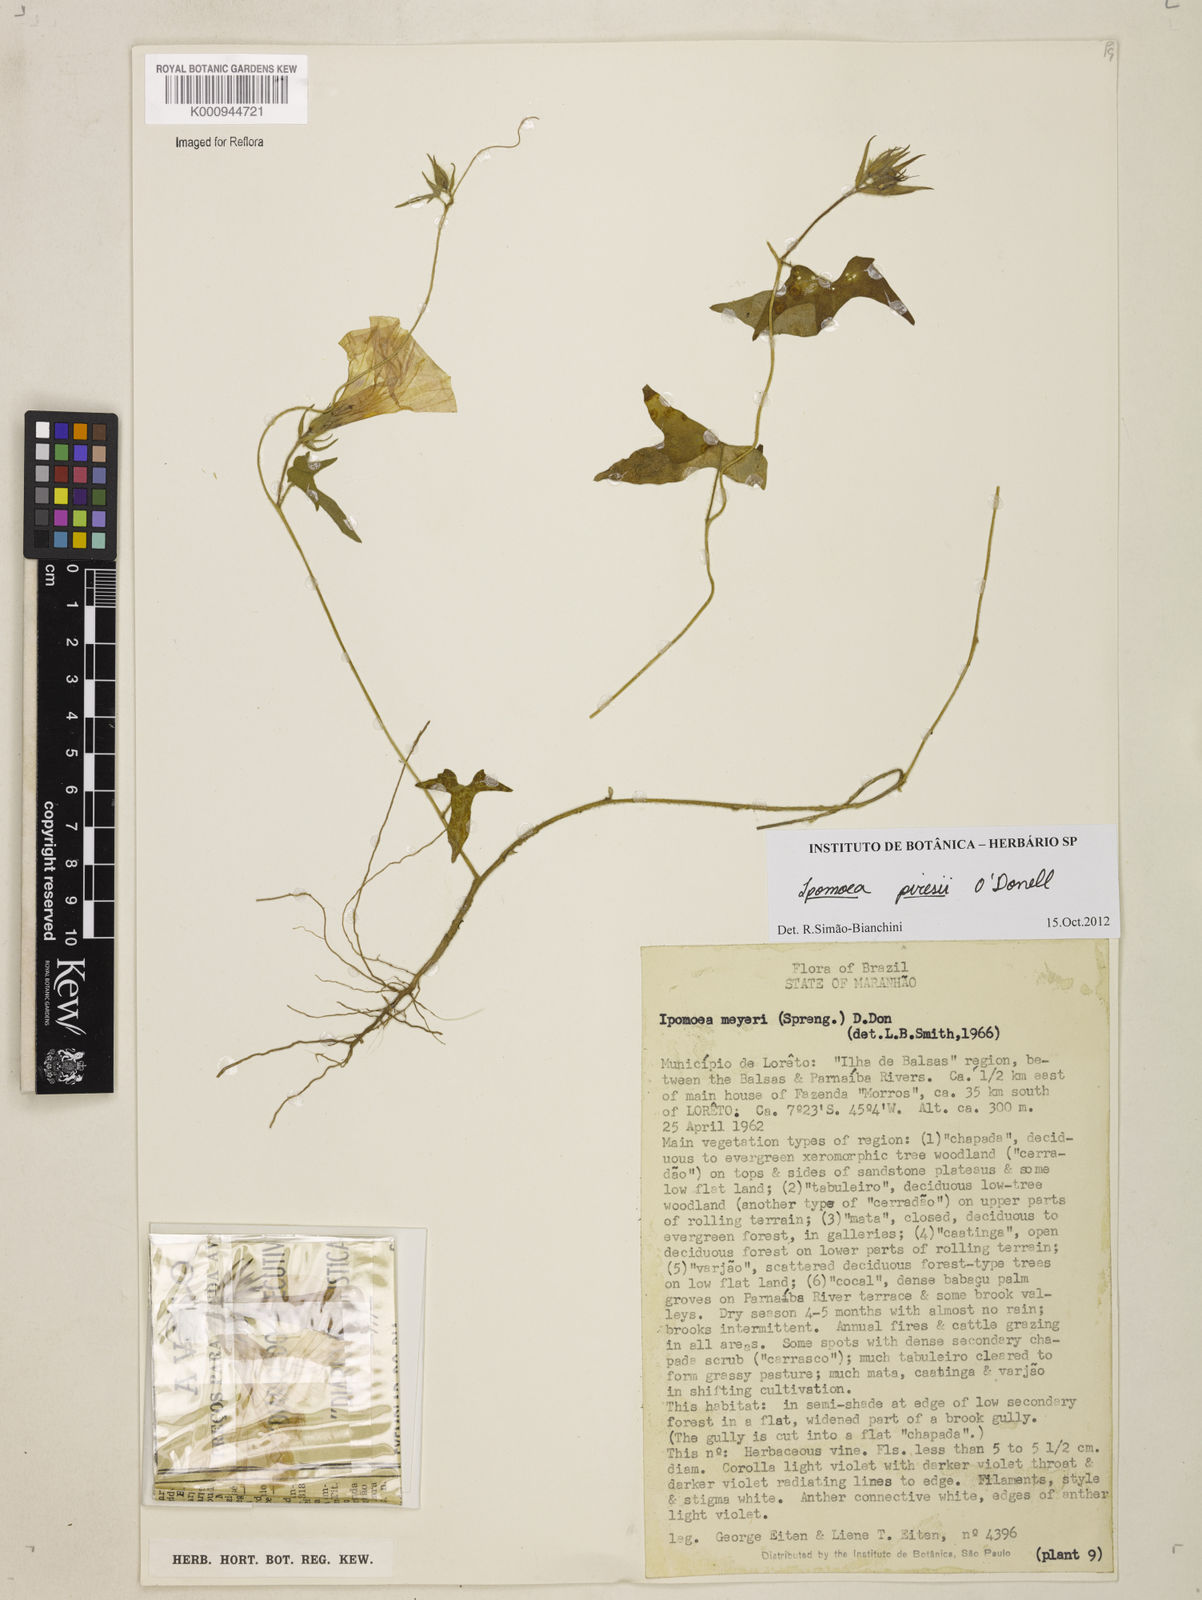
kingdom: Plantae
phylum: Tracheophyta
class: Magnoliopsida
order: Solanales
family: Convolvulaceae
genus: Ipomoea
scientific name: Ipomoea pintoi
